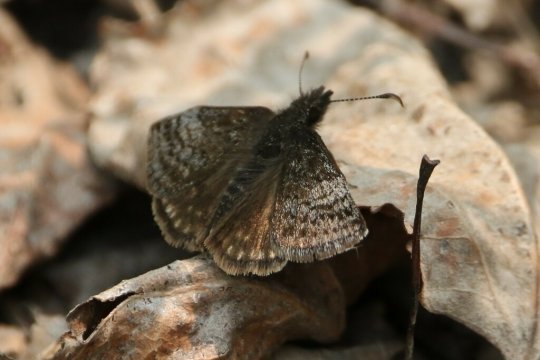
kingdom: Animalia
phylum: Arthropoda
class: Insecta
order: Lepidoptera
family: Hesperiidae
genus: Erynnis
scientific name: Erynnis icelus
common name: Dreamy Duskywing
